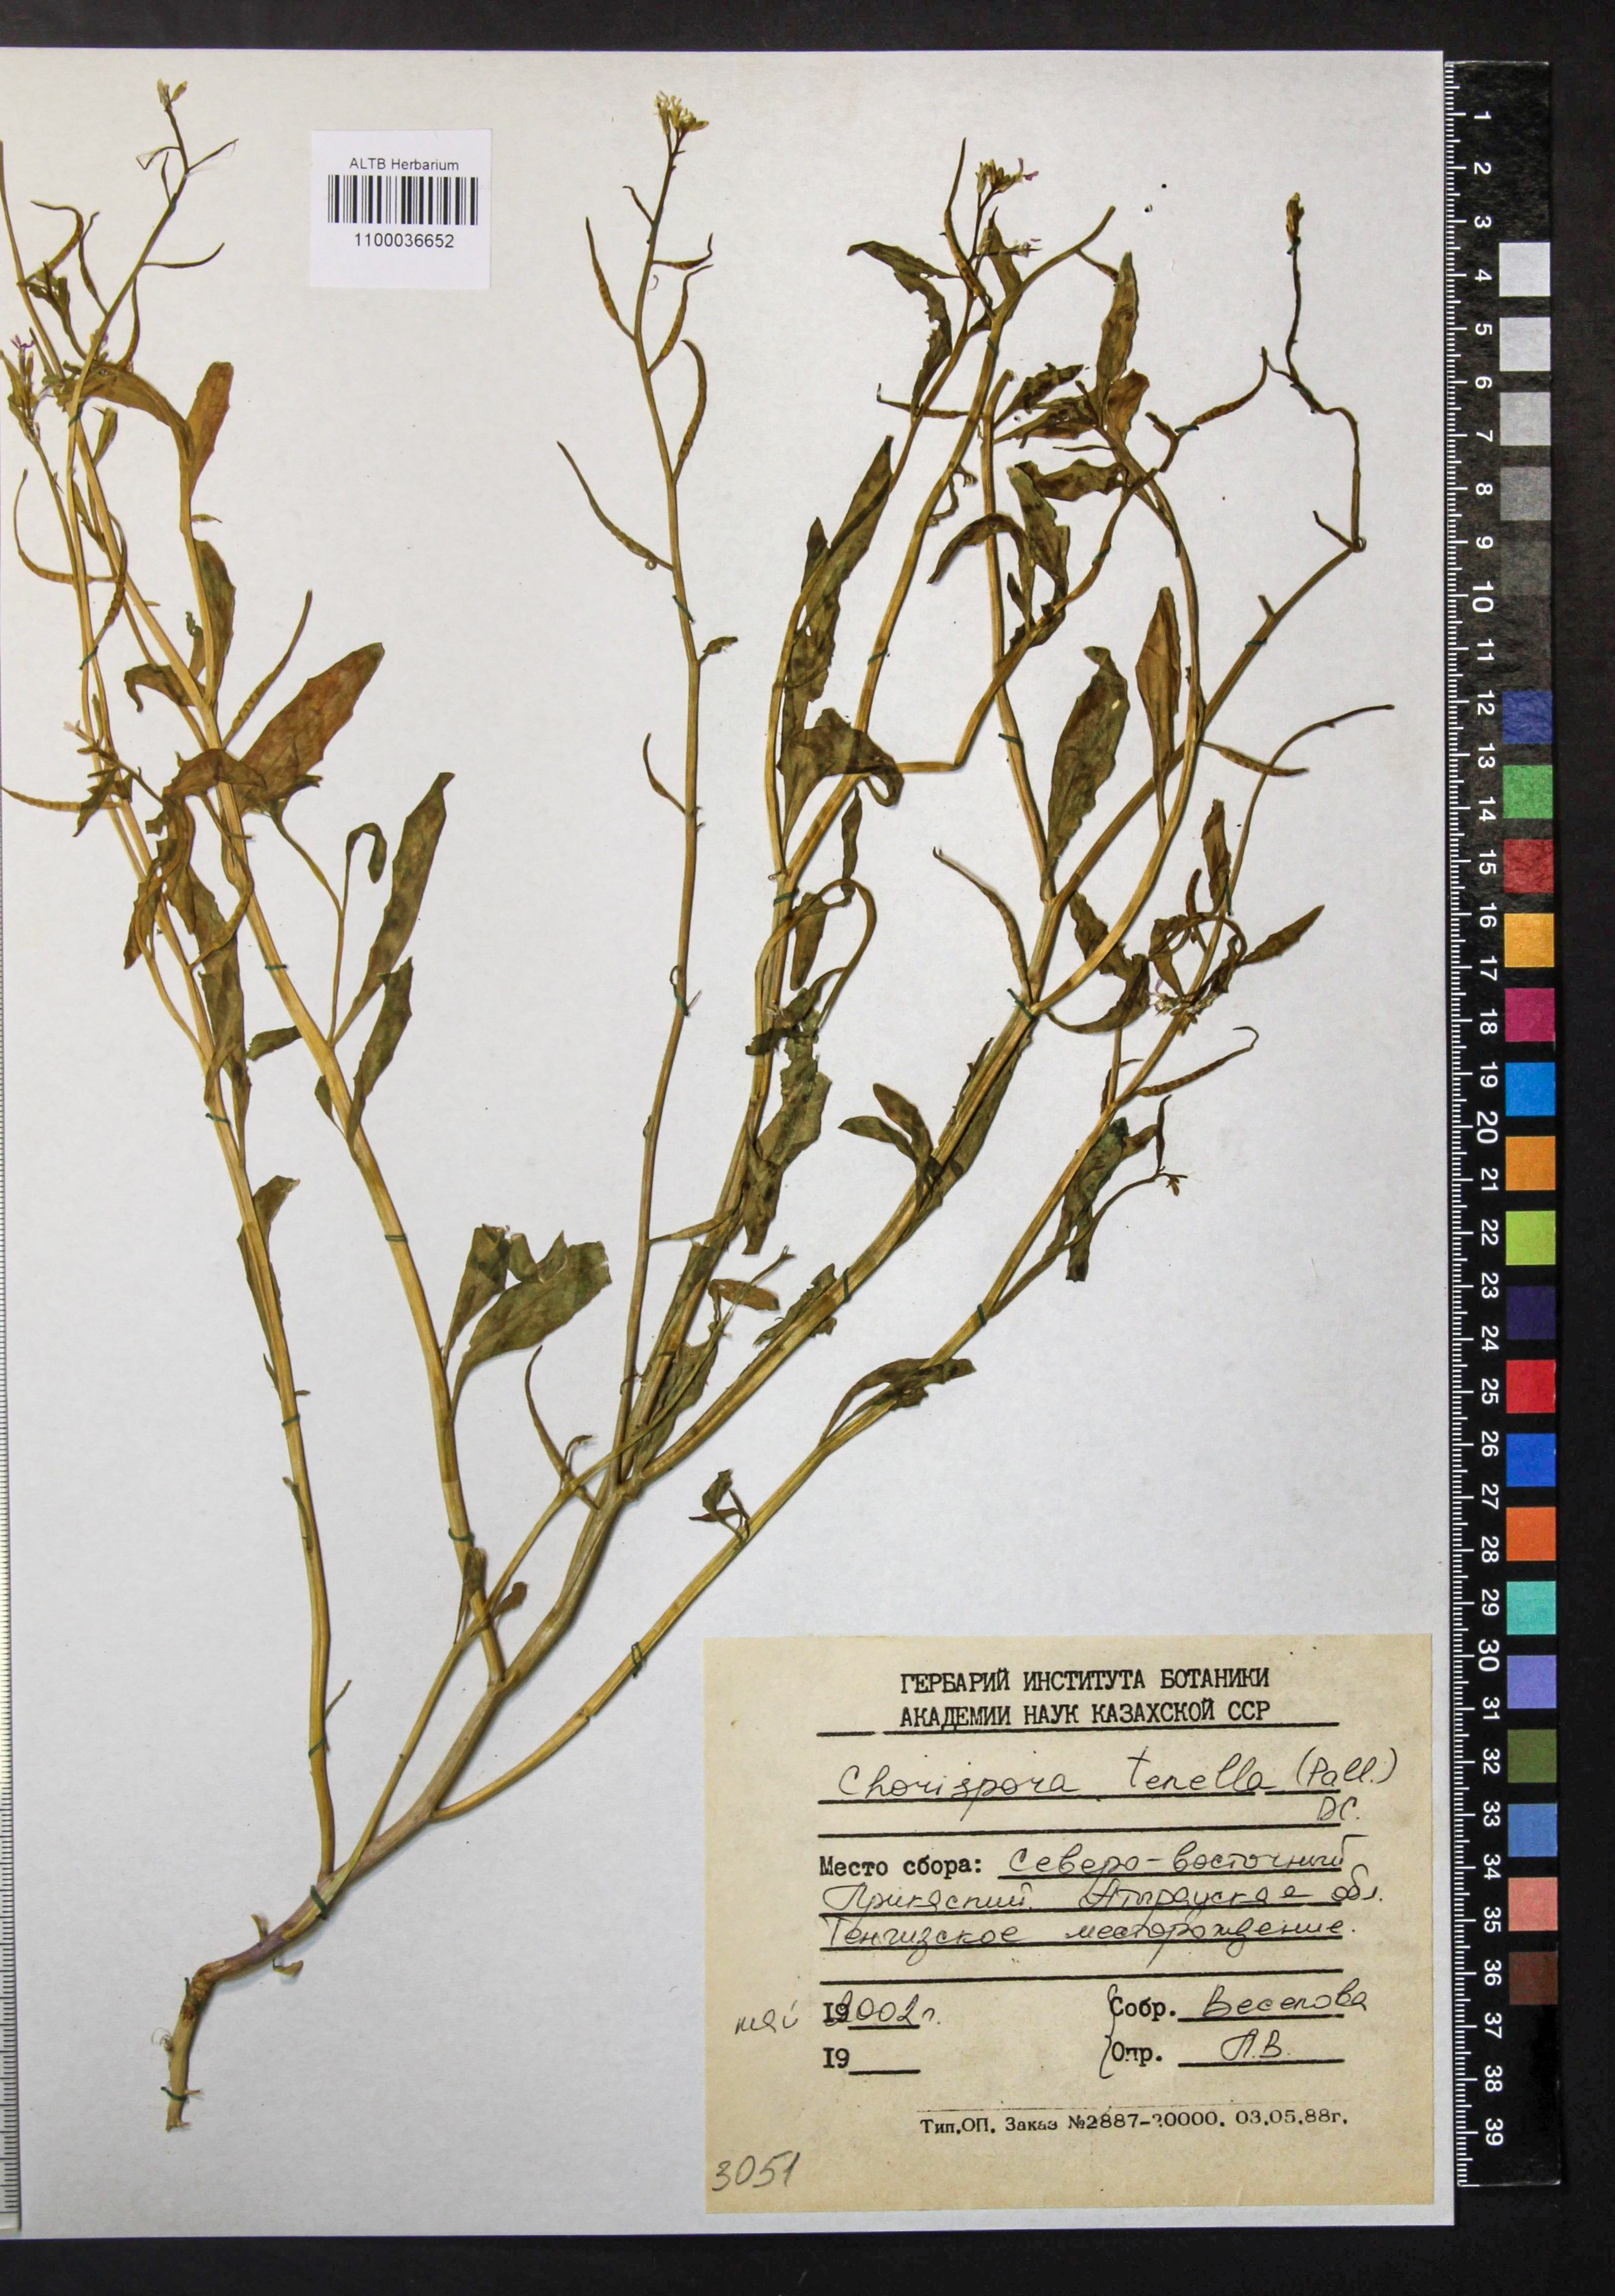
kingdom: Plantae
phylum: Tracheophyta
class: Magnoliopsida
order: Brassicales
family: Brassicaceae
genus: Chorispora
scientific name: Chorispora tenella
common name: Crossflower
